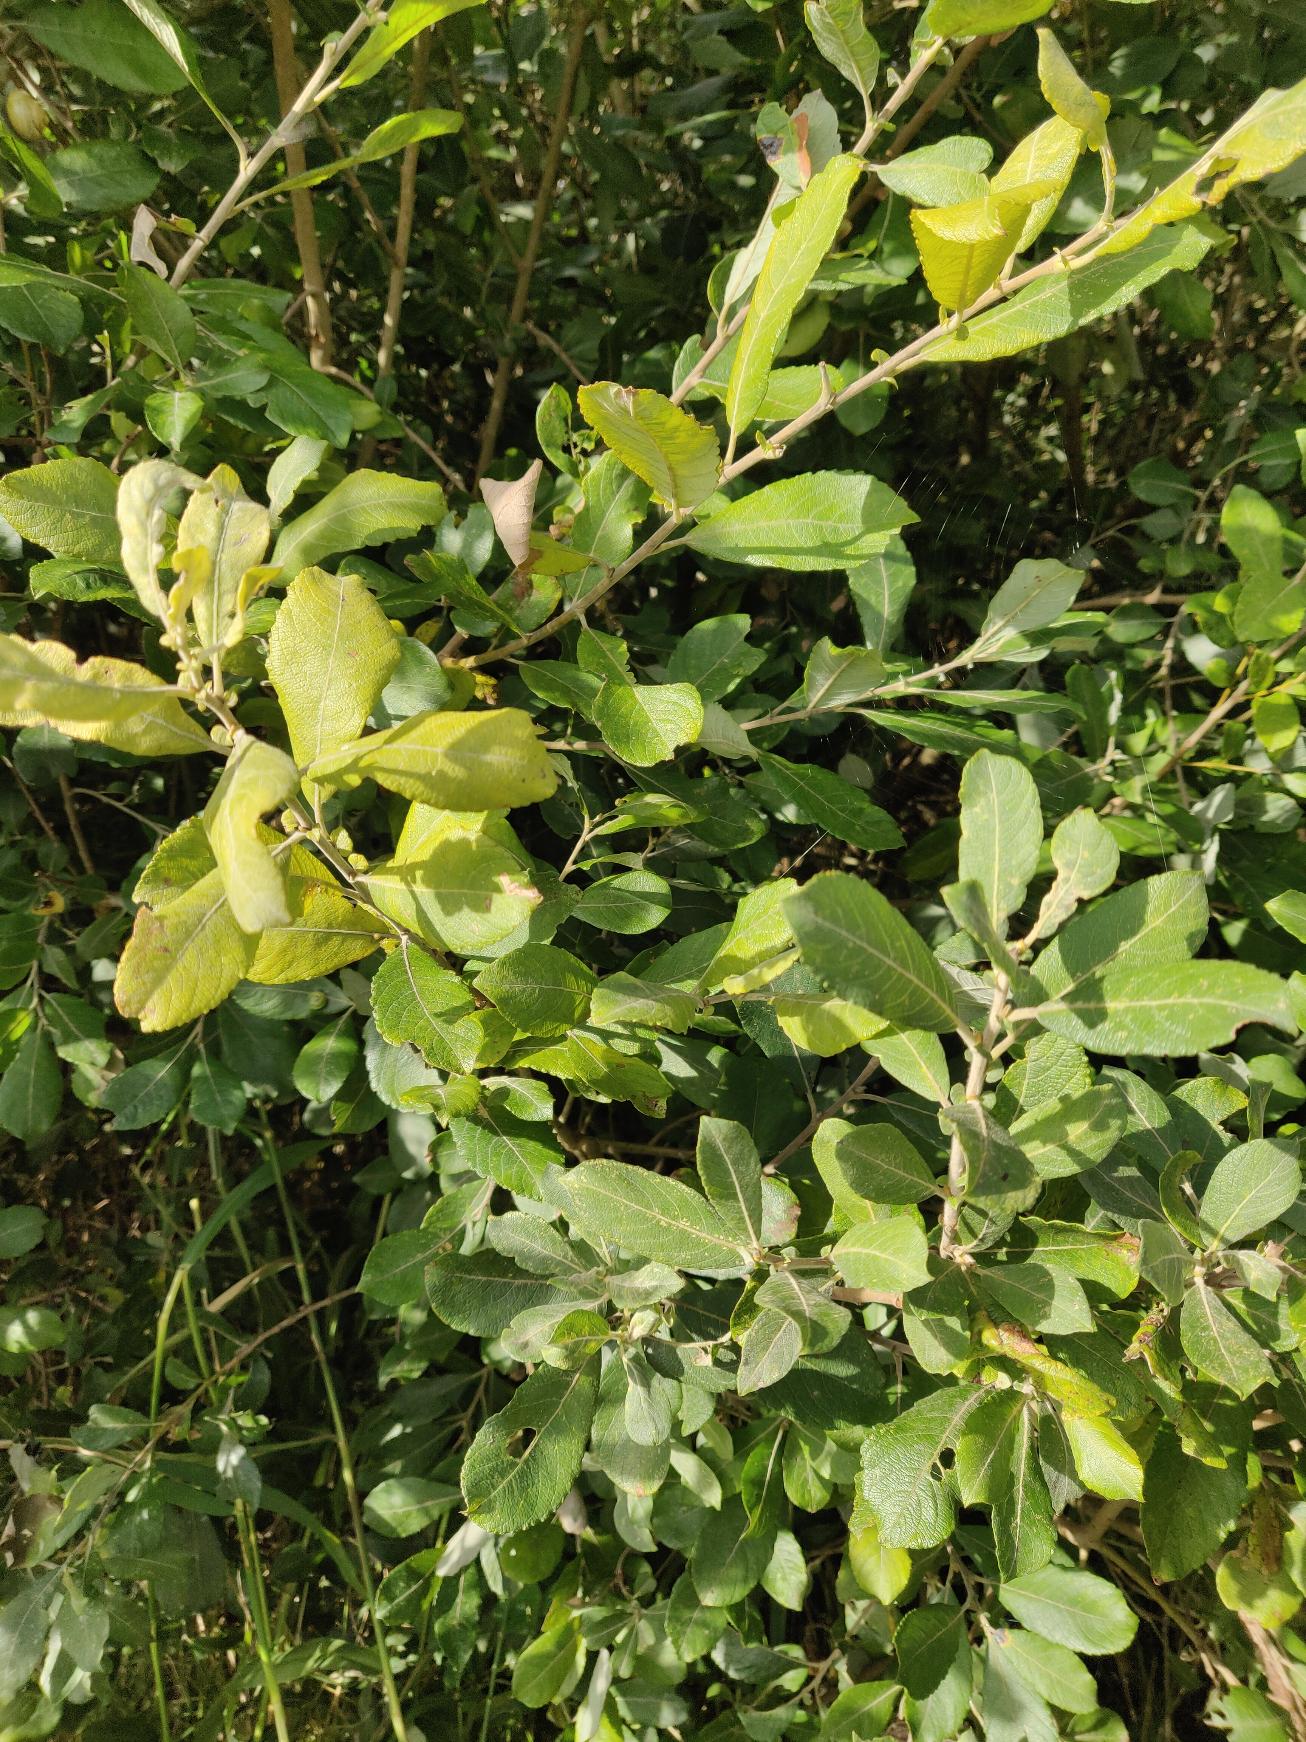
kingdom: Plantae
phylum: Tracheophyta
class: Magnoliopsida
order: Malpighiales
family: Salicaceae
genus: Salix
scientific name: Salix cinerea
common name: Grå-pil
